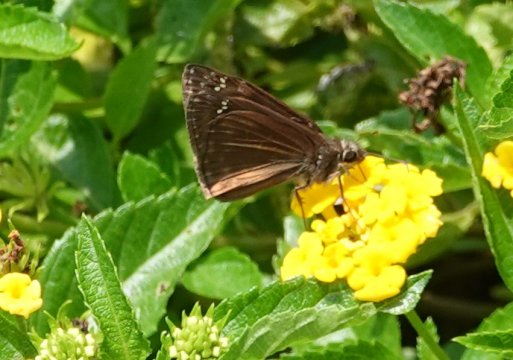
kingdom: Animalia
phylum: Arthropoda
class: Insecta
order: Lepidoptera
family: Hesperiidae
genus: Gesta
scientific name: Gesta
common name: Horace's Duskywing
